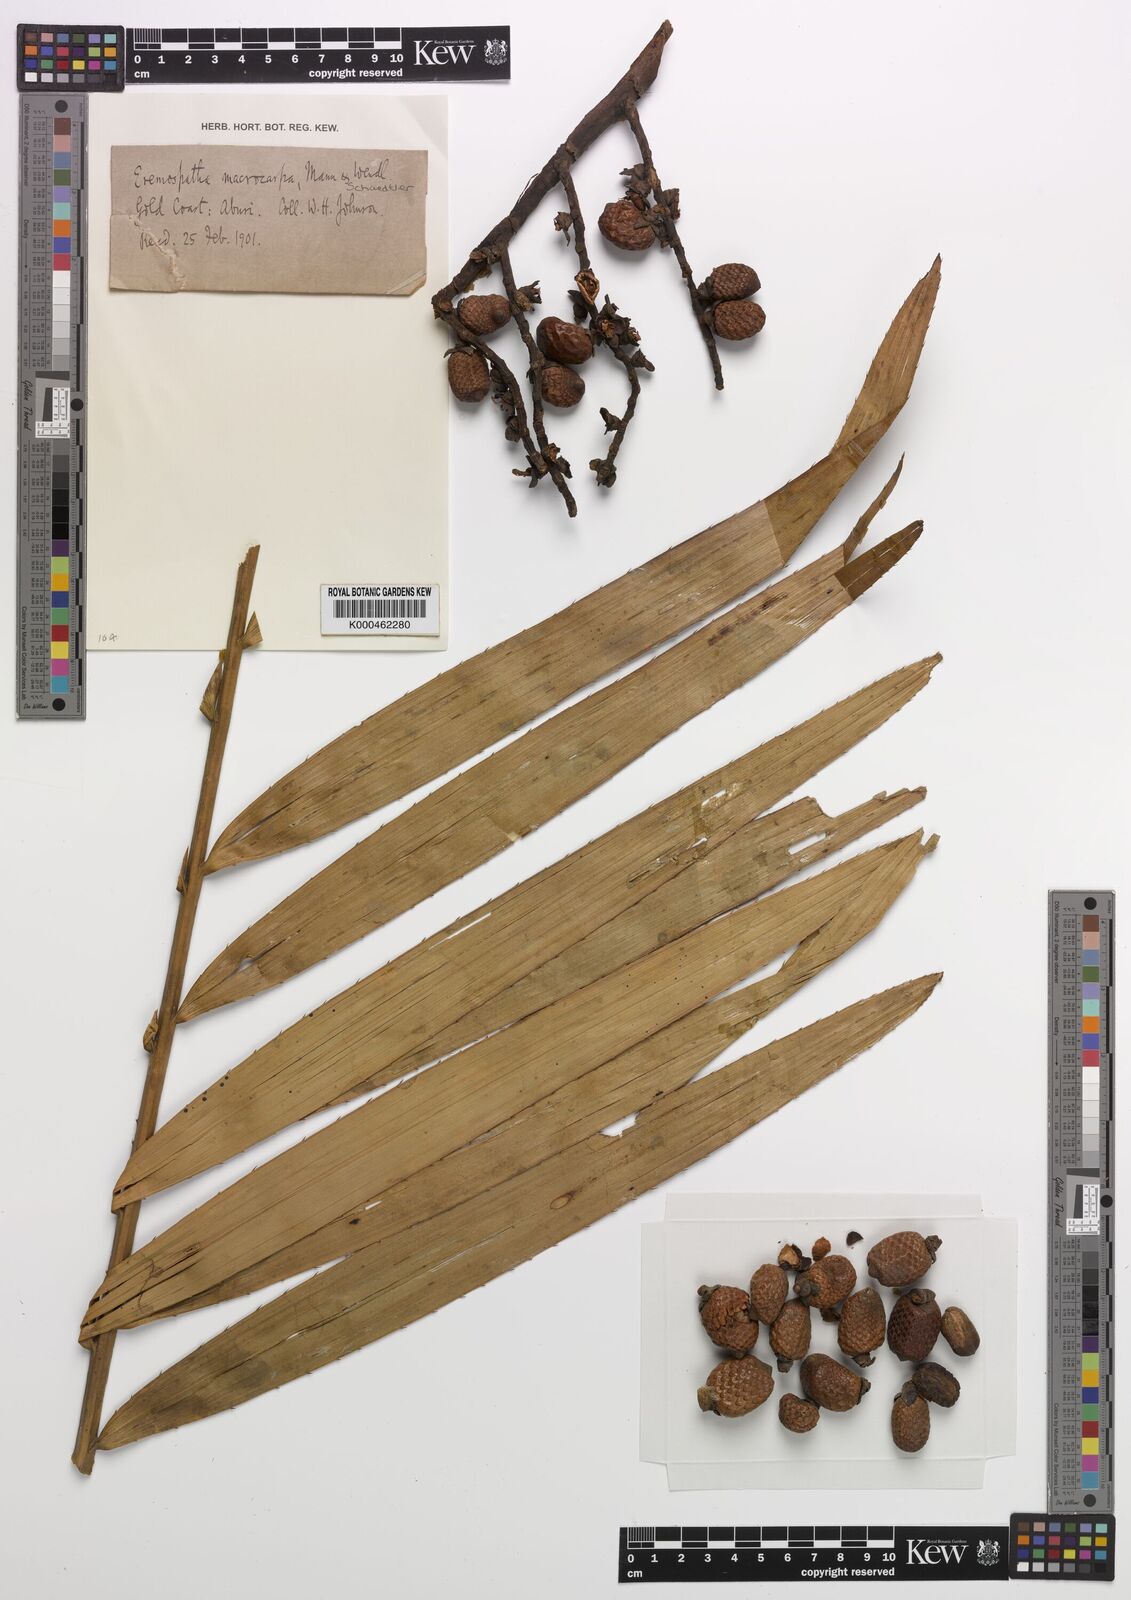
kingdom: Plantae
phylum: Tracheophyta
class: Liliopsida
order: Arecales
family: Arecaceae
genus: Eremospatha
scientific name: Eremospatha
